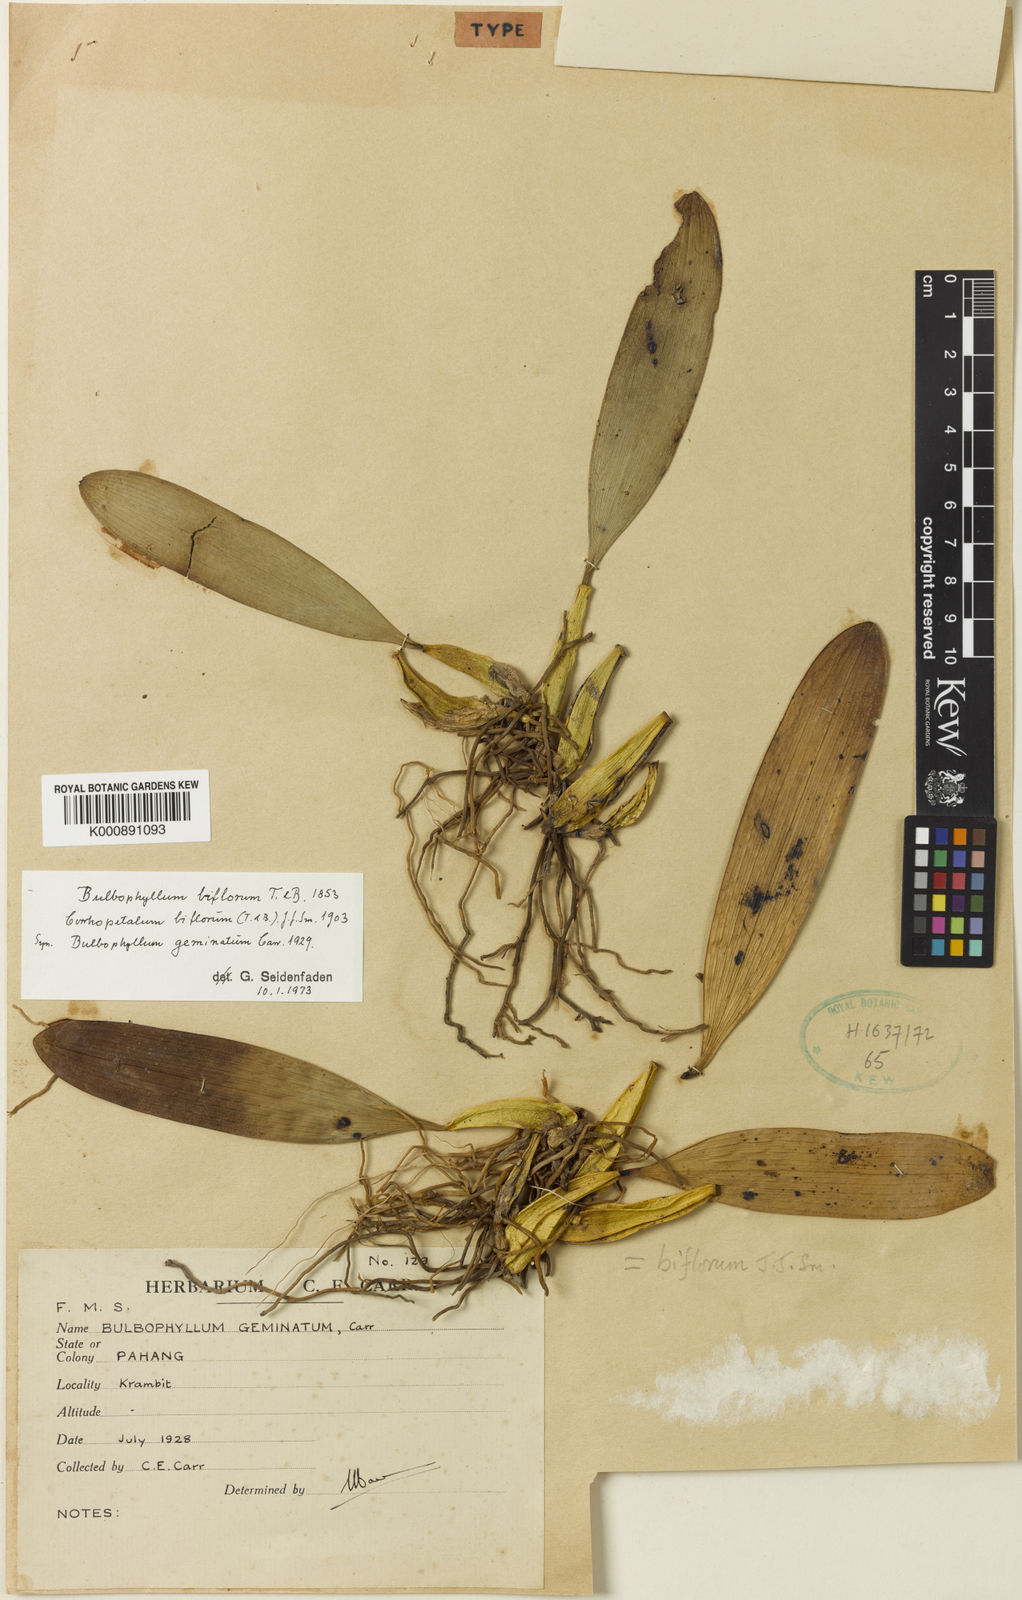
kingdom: Plantae
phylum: Tracheophyta
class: Liliopsida
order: Asparagales
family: Orchidaceae
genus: Bulbophyllum
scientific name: Bulbophyllum biflorum
